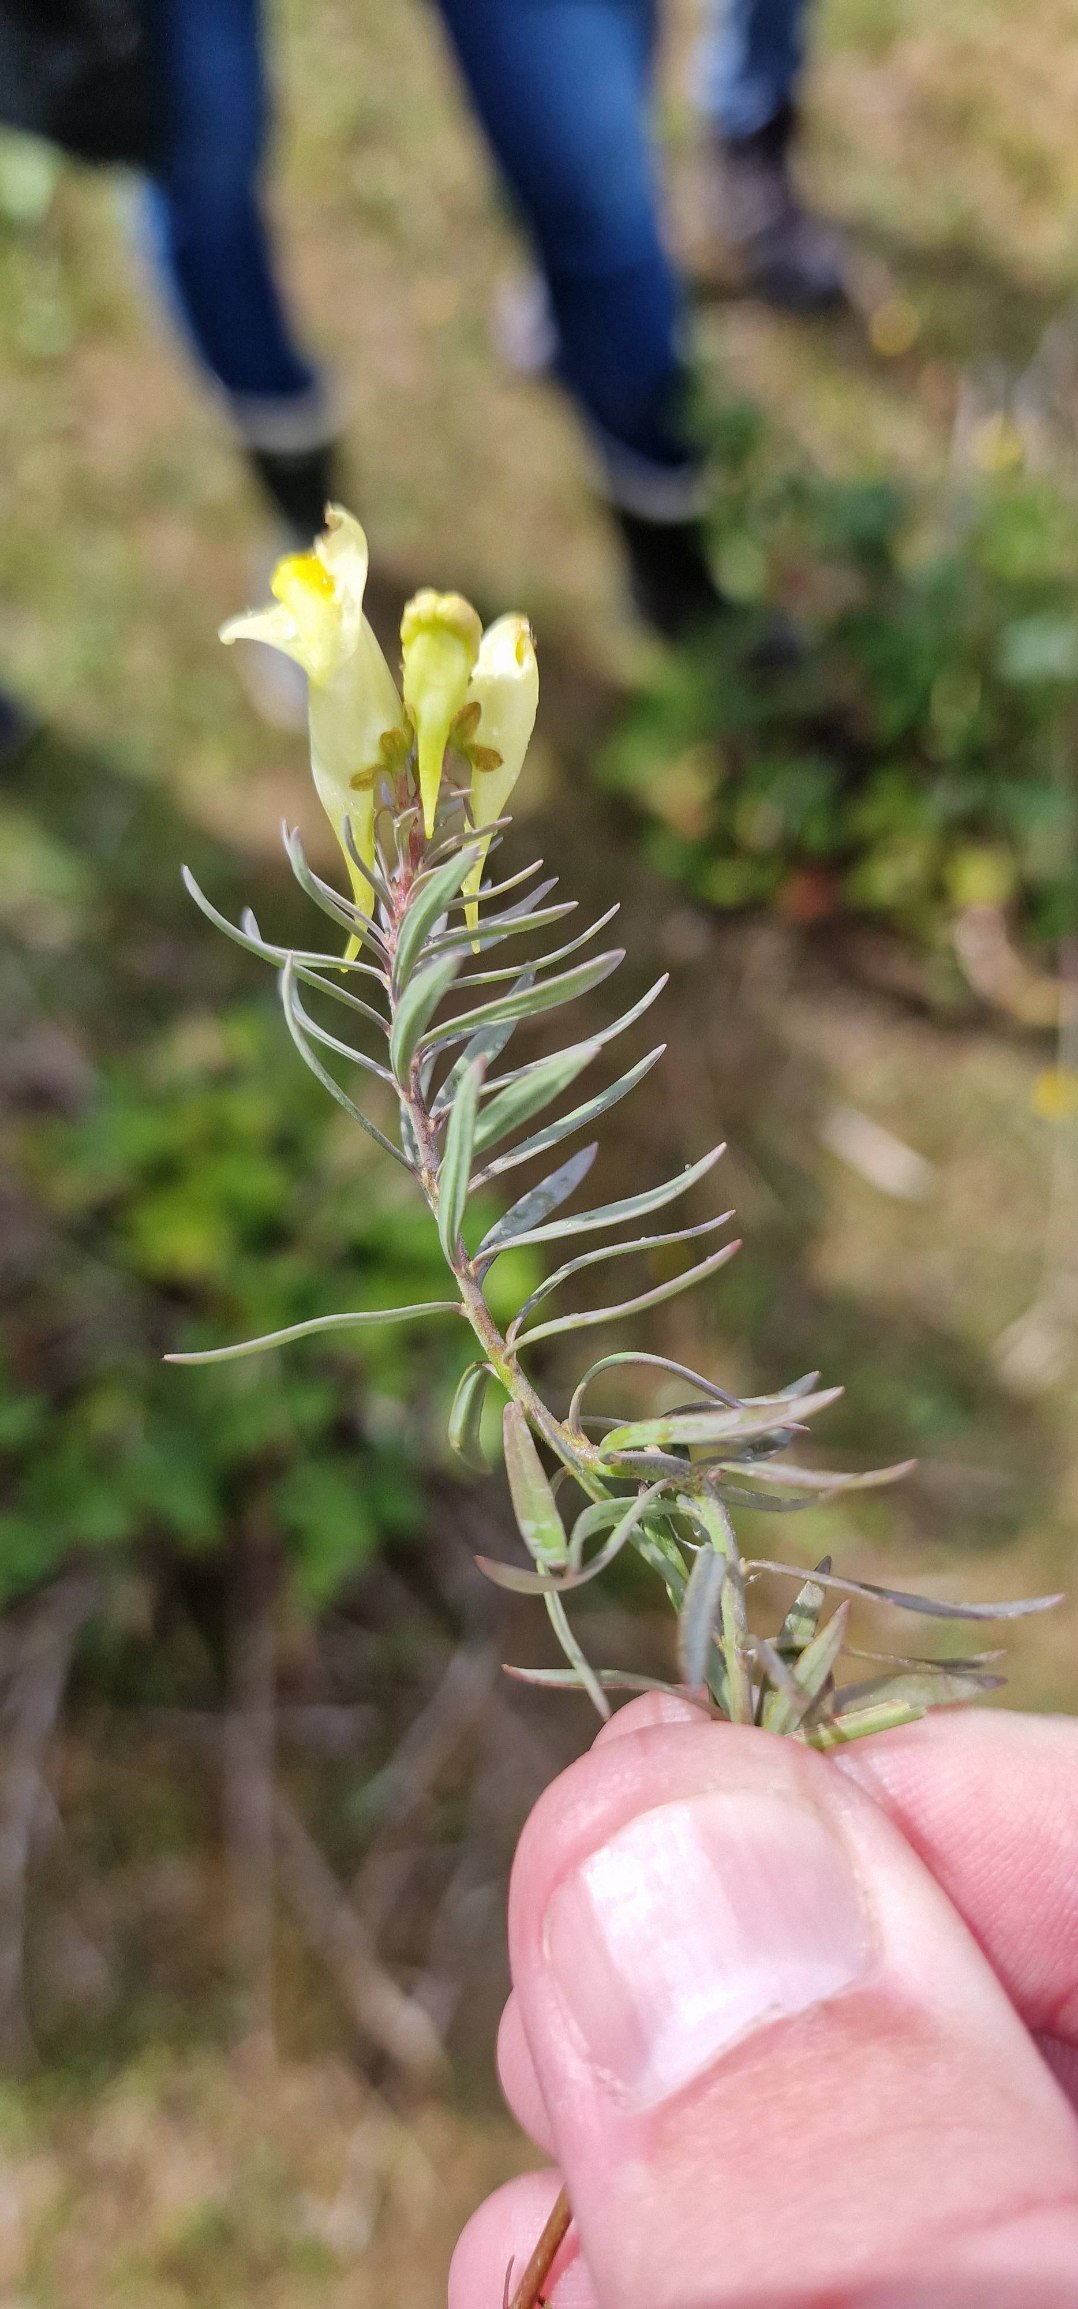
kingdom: Plantae
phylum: Tracheophyta
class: Magnoliopsida
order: Lamiales
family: Plantaginaceae
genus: Linaria
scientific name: Linaria vulgaris
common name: Almindelig torskemund
